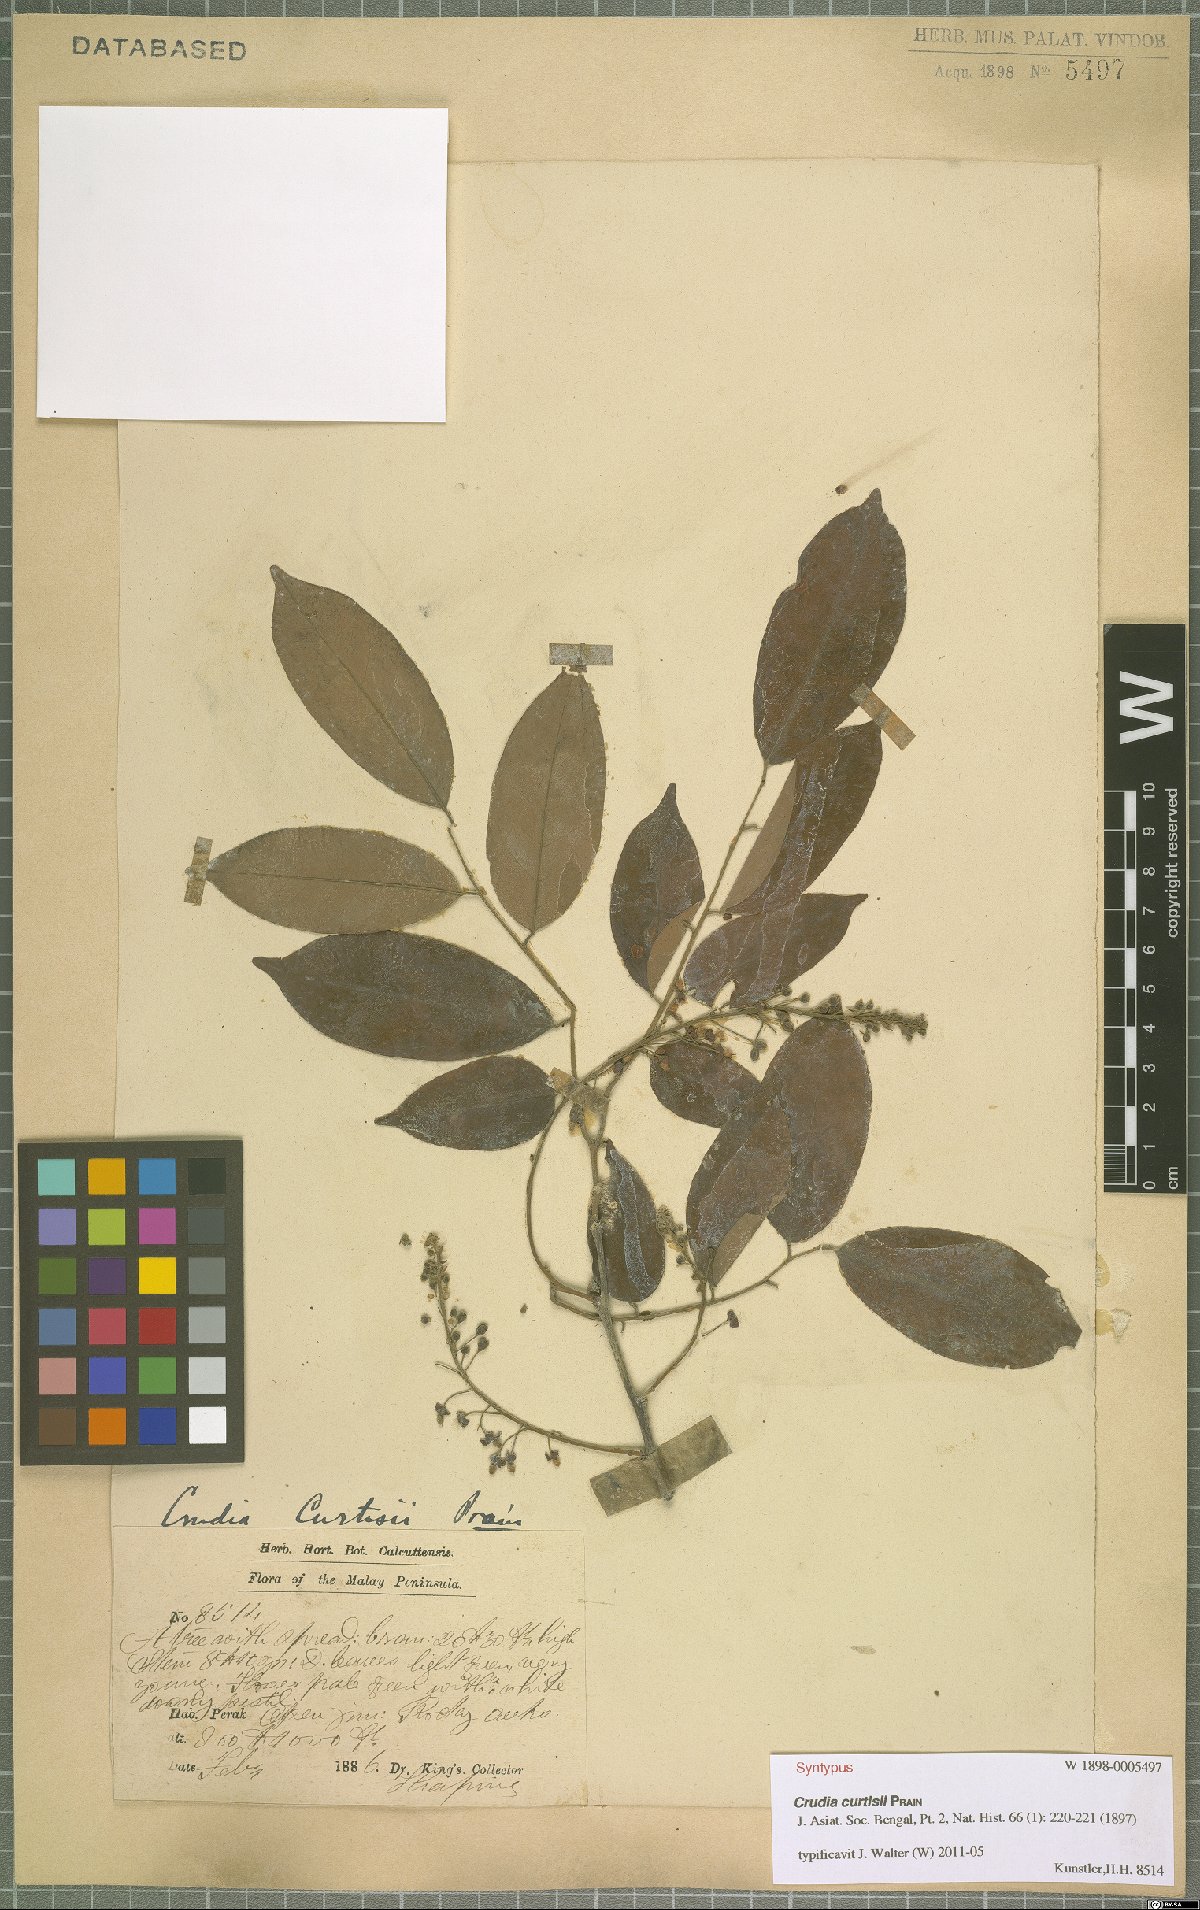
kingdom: Plantae
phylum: Tracheophyta
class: Magnoliopsida
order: Fabales
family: Fabaceae
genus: Crudia
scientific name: Crudia curtisii
